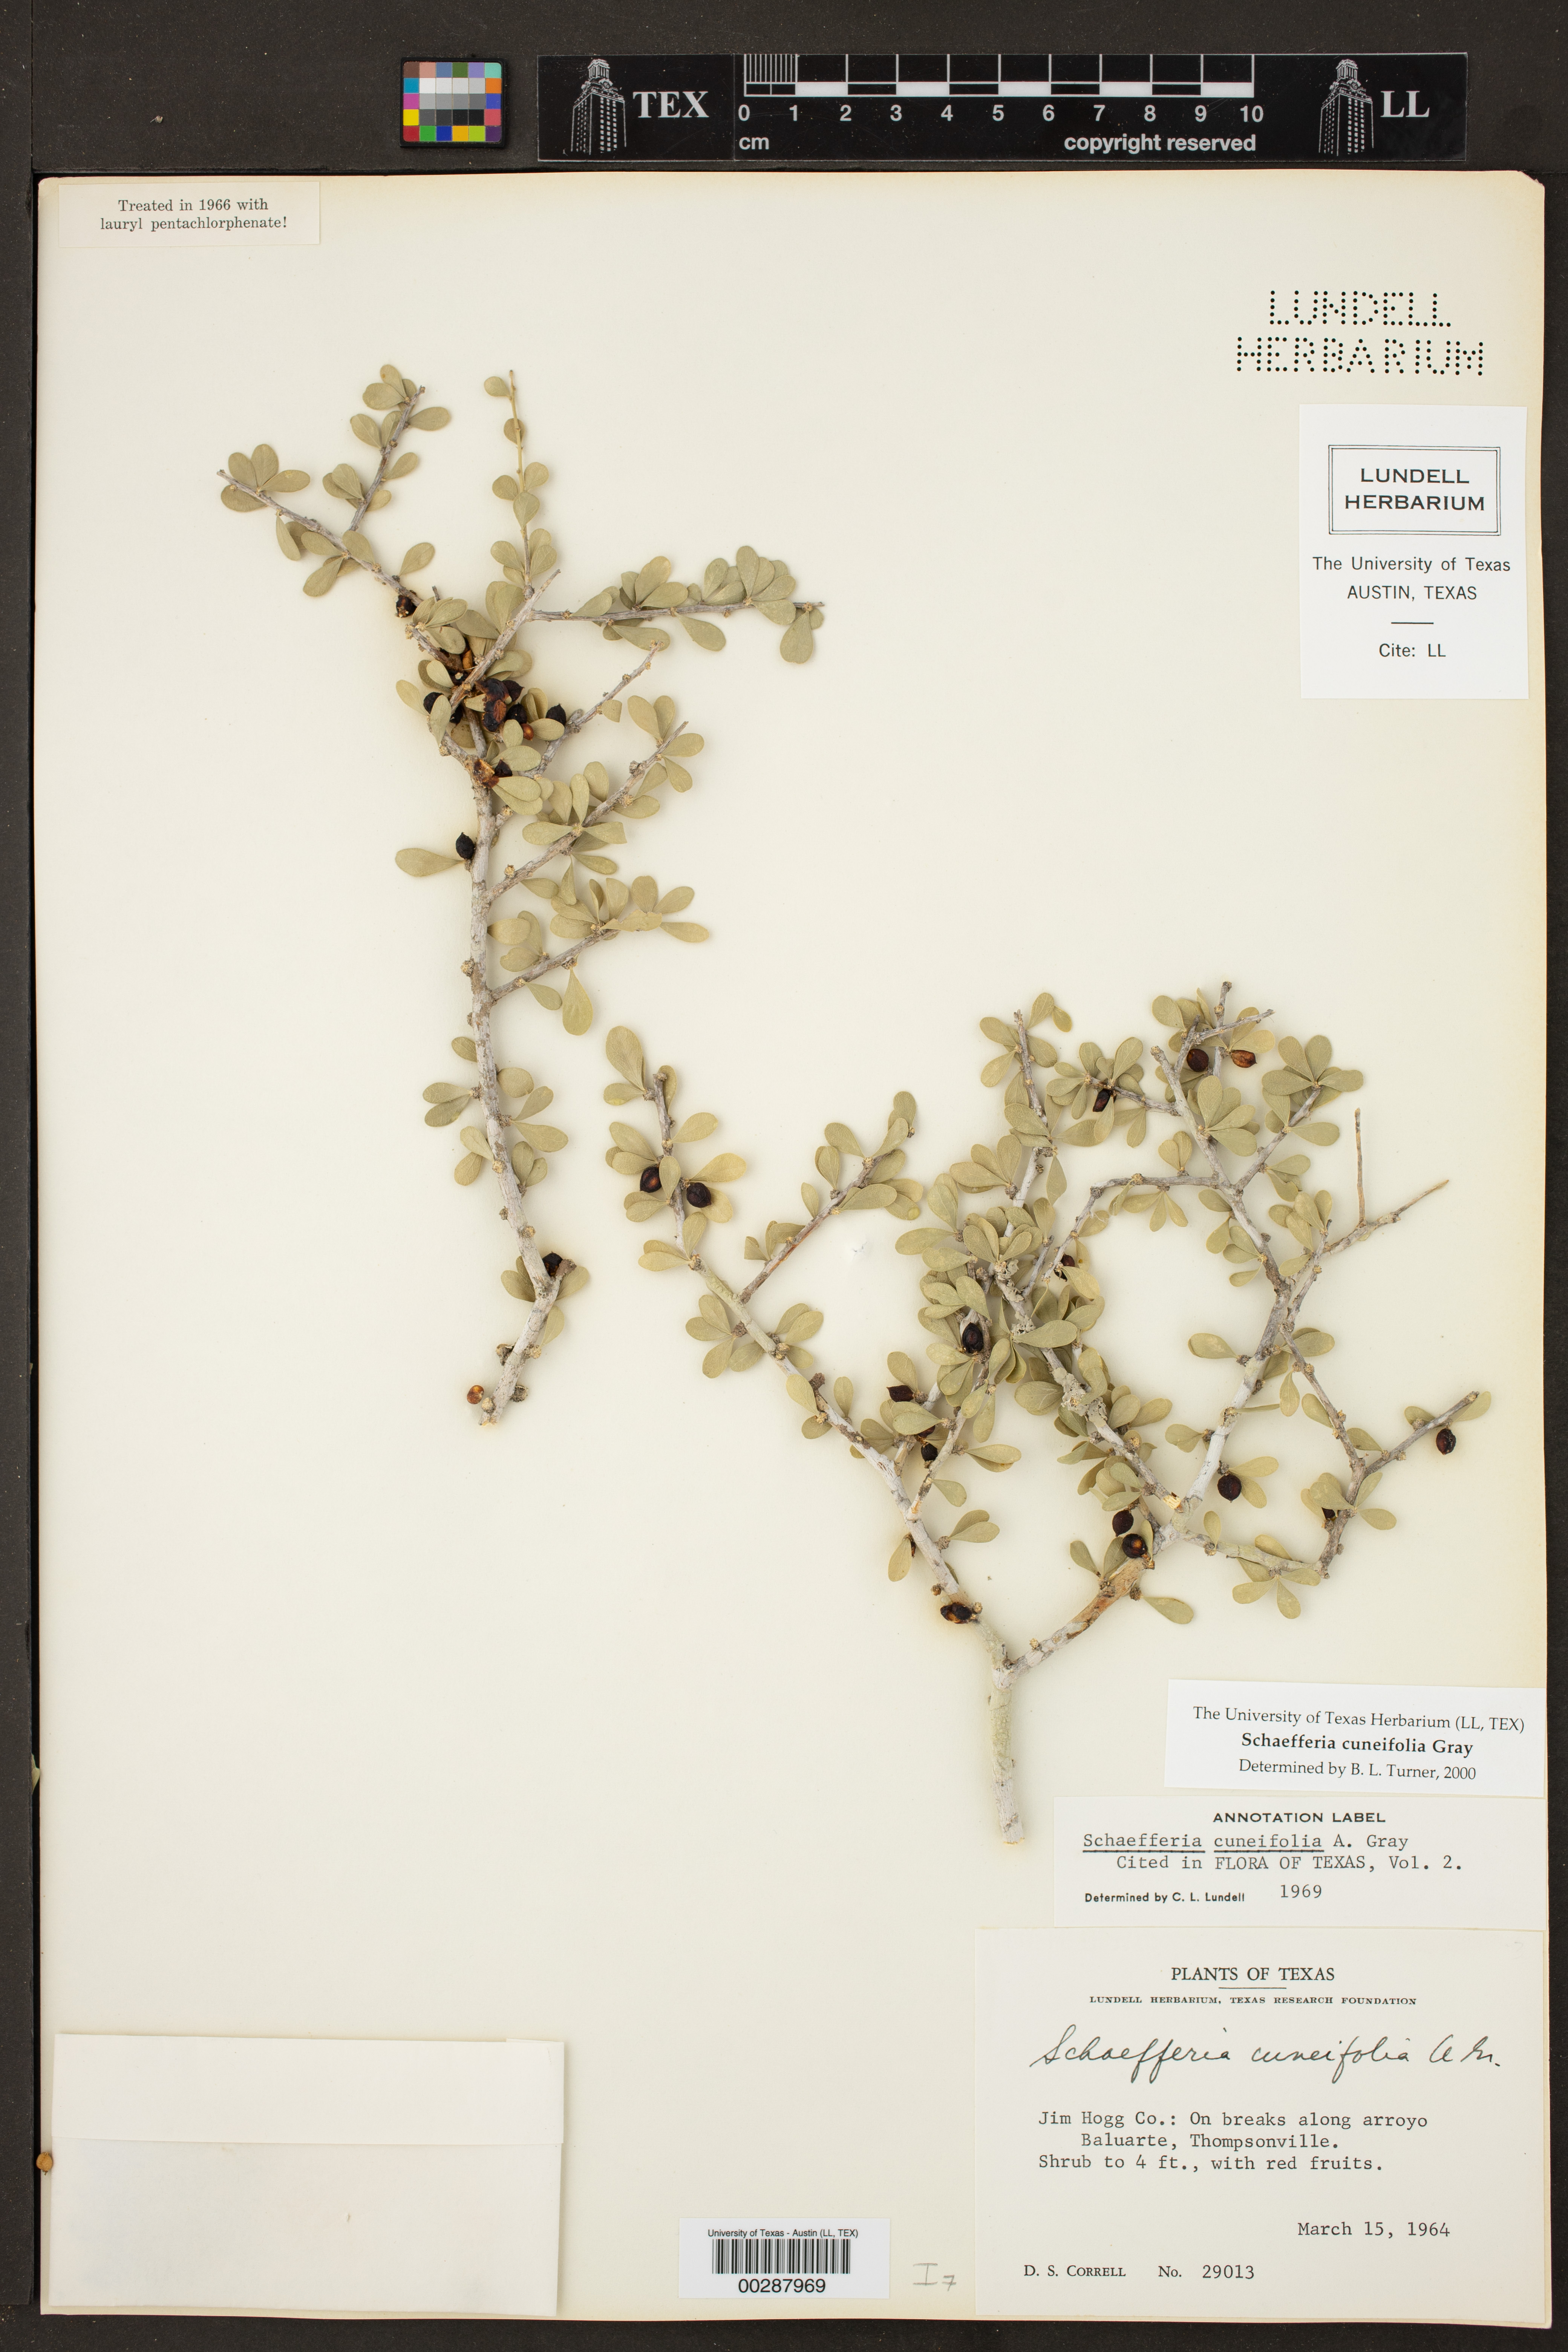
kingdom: Plantae
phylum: Tracheophyta
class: Magnoliopsida
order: Celastrales
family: Celastraceae
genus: Schaefferia
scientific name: Schaefferia cuneifolia
